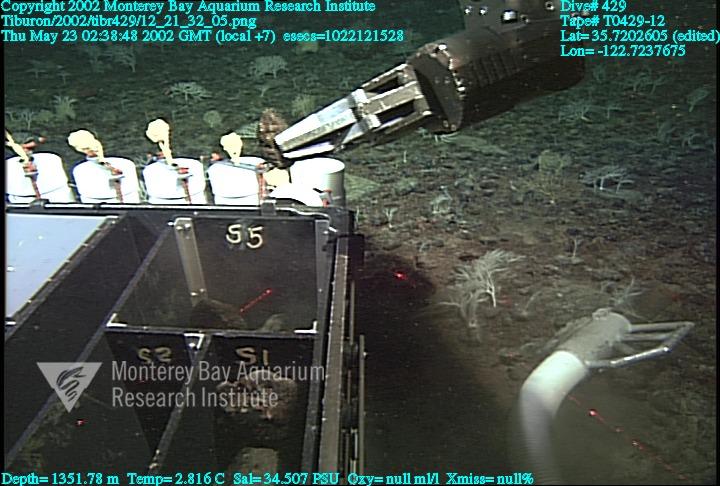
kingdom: Animalia
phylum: Porifera
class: Hexactinellida
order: Lyssacinosida
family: Rossellidae
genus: Staurocalyptus
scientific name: Staurocalyptus
